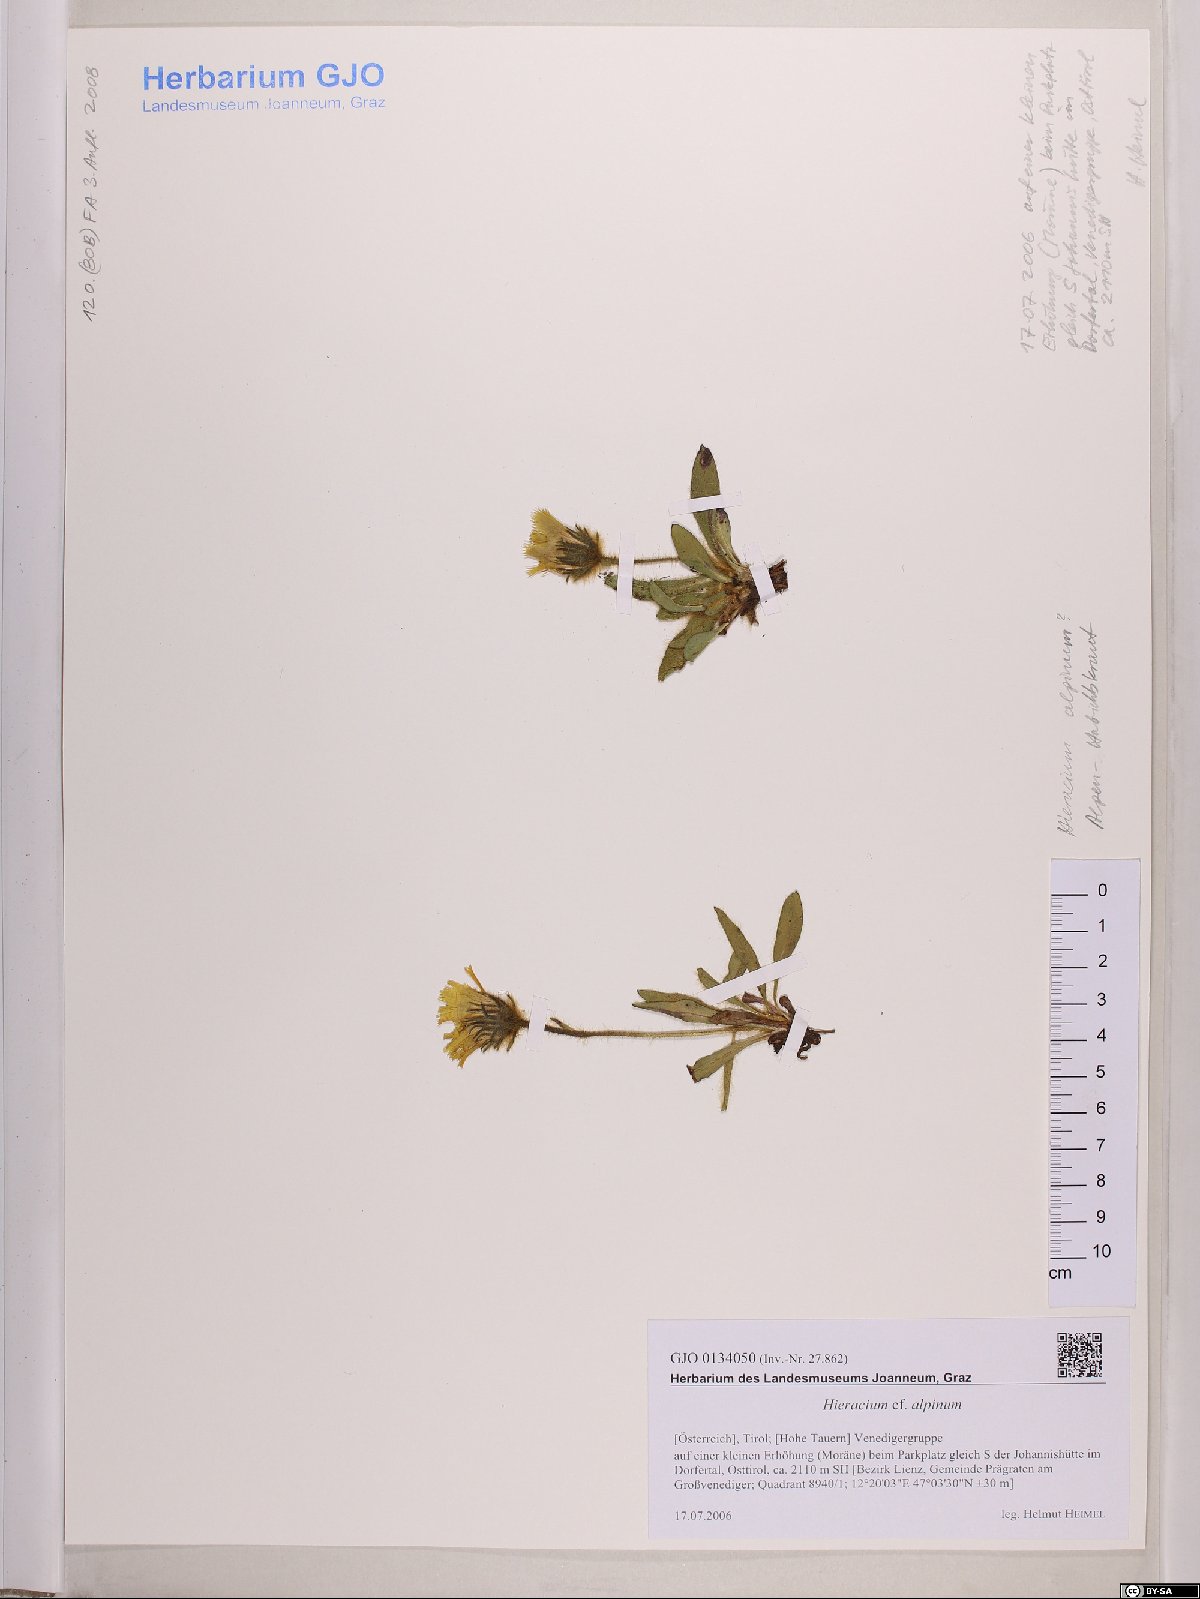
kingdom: Plantae
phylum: Tracheophyta
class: Magnoliopsida
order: Asterales
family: Asteraceae
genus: Hieracium
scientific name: Hieracium alpinum
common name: Alpine hawkweed
